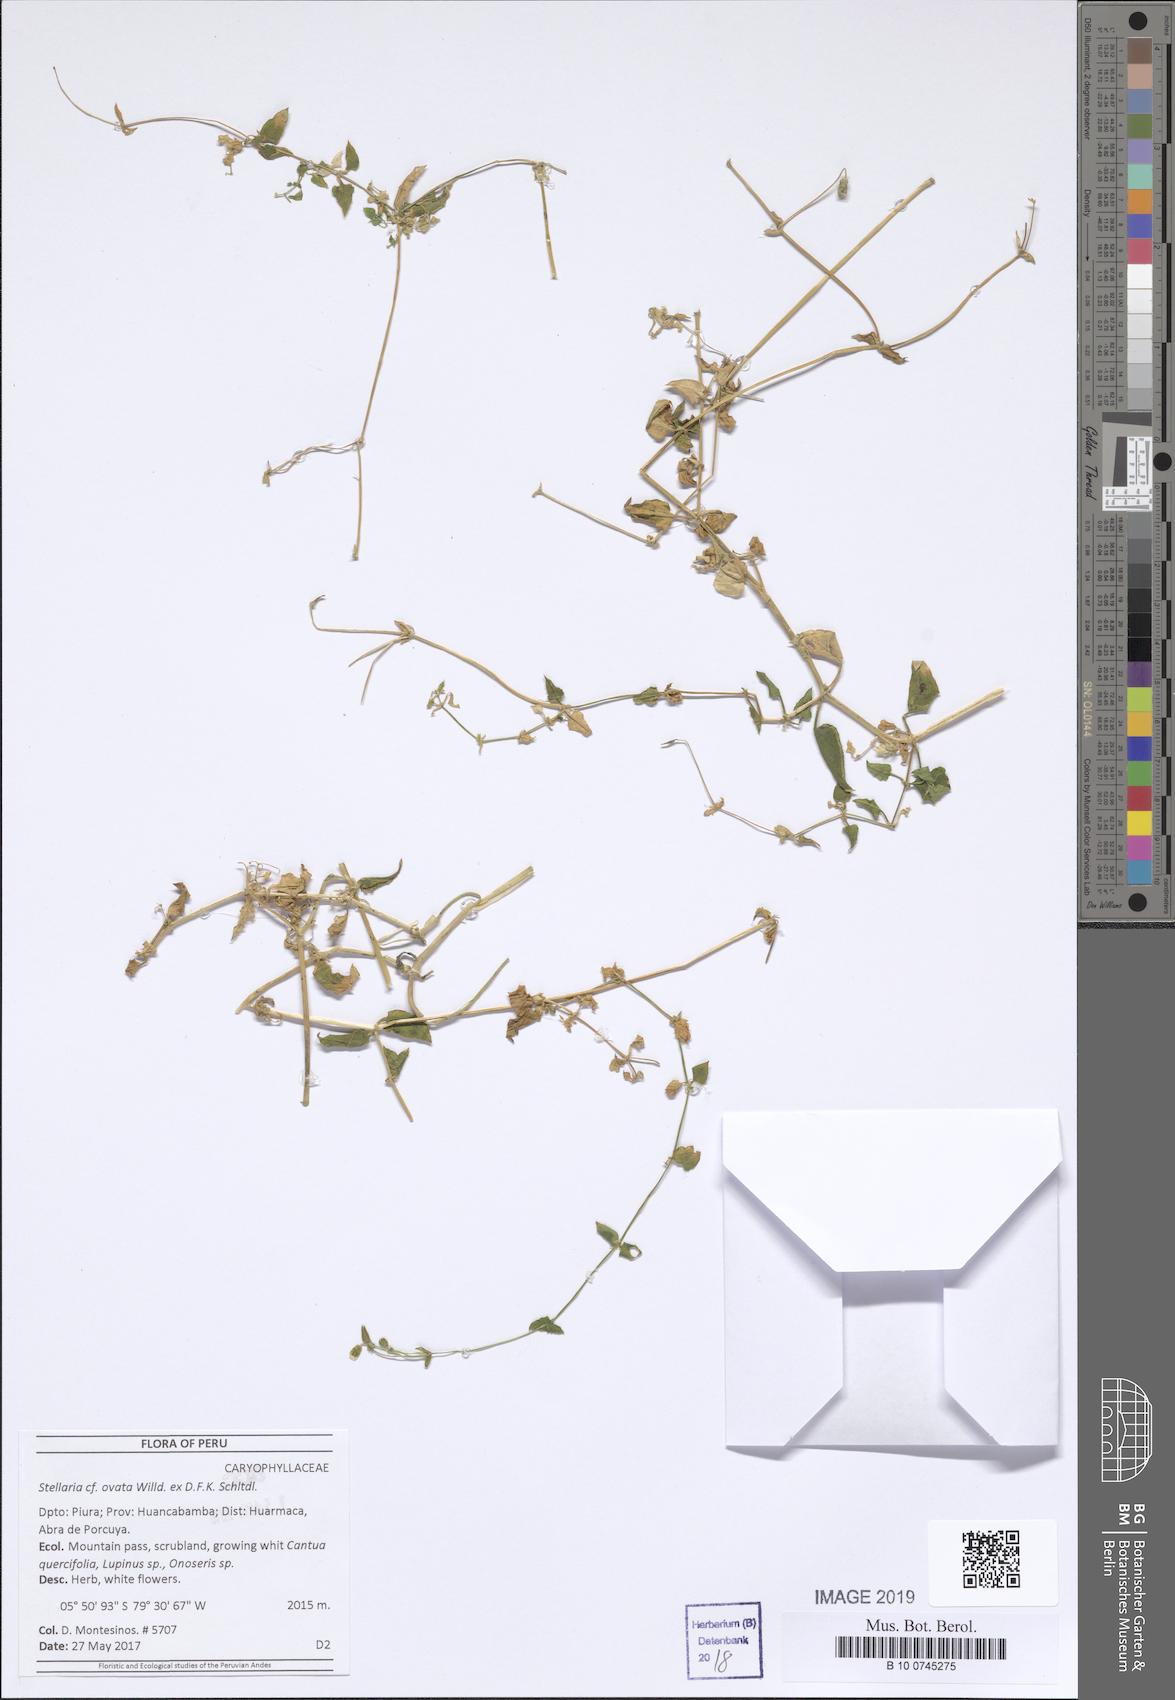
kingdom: Plantae
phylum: Tracheophyta
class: Magnoliopsida
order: Caryophyllales
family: Caryophyllaceae
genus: Stellaria
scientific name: Stellaria ovata
